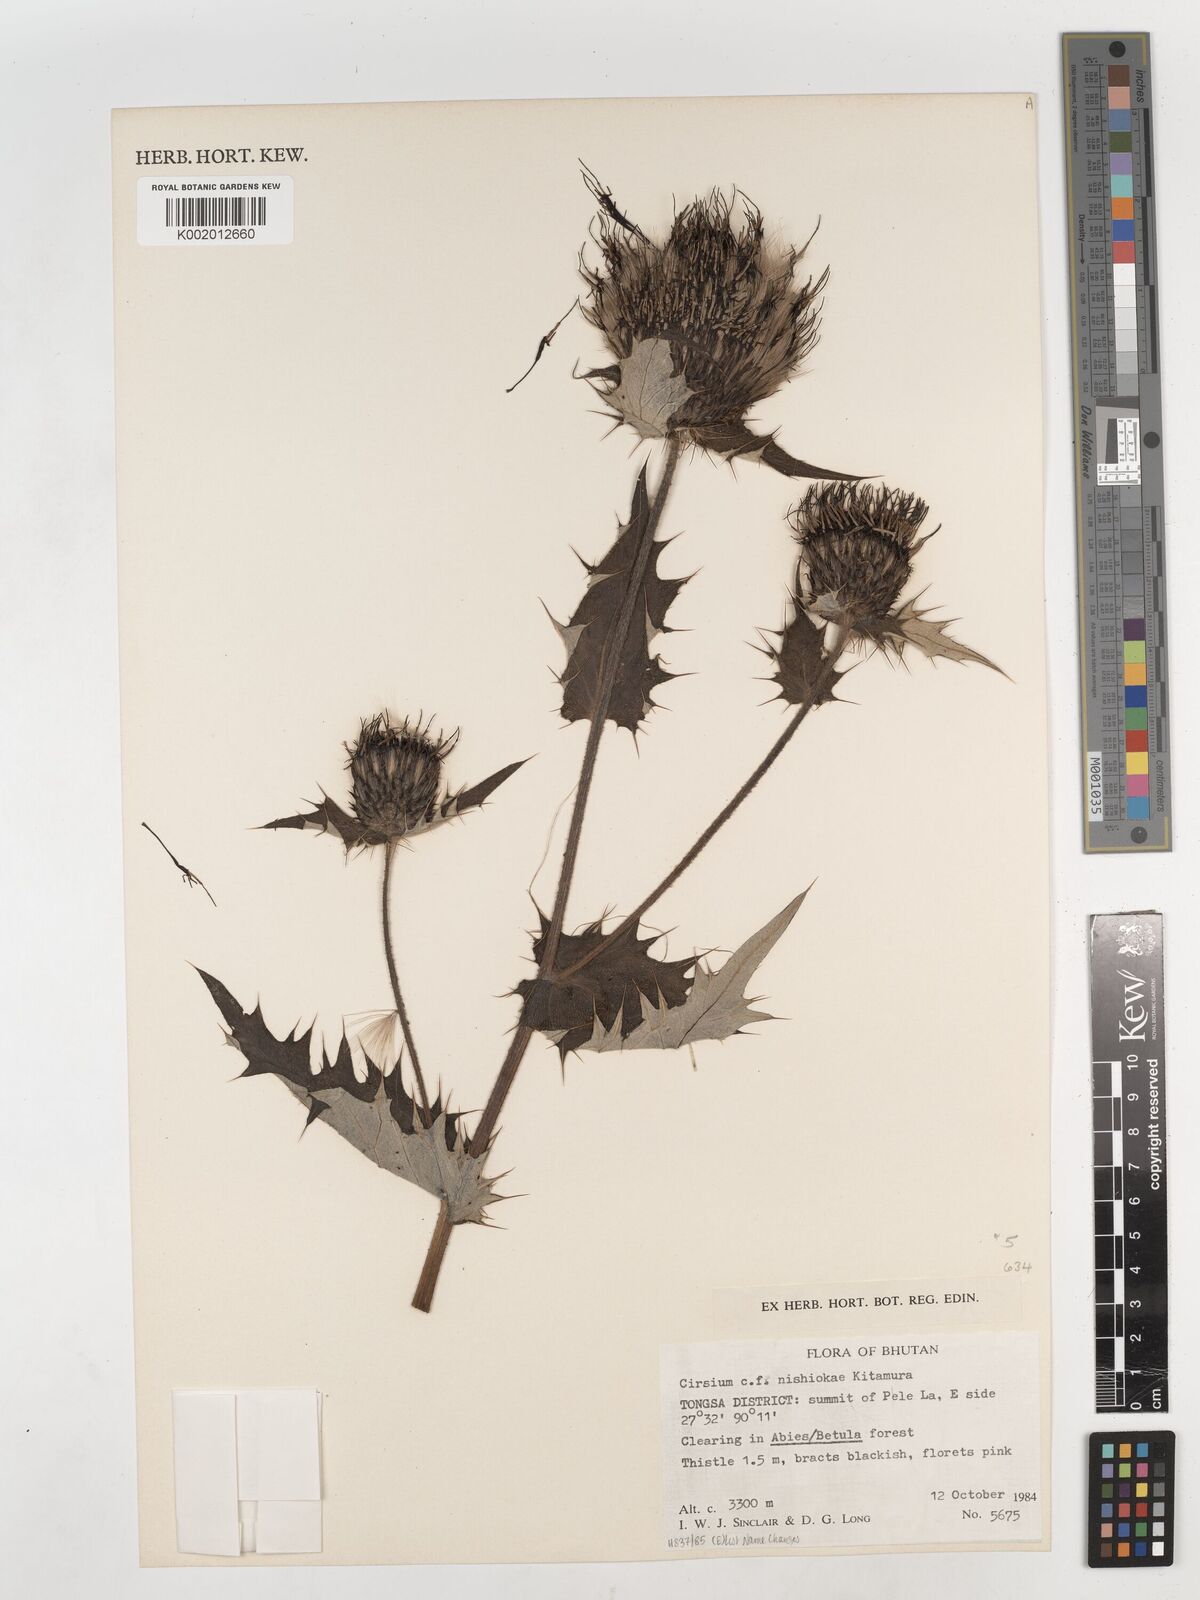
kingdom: Plantae
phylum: Tracheophyta
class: Magnoliopsida
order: Asterales
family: Asteraceae
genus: Lophiolepis
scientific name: Lophiolepis nishiokae
